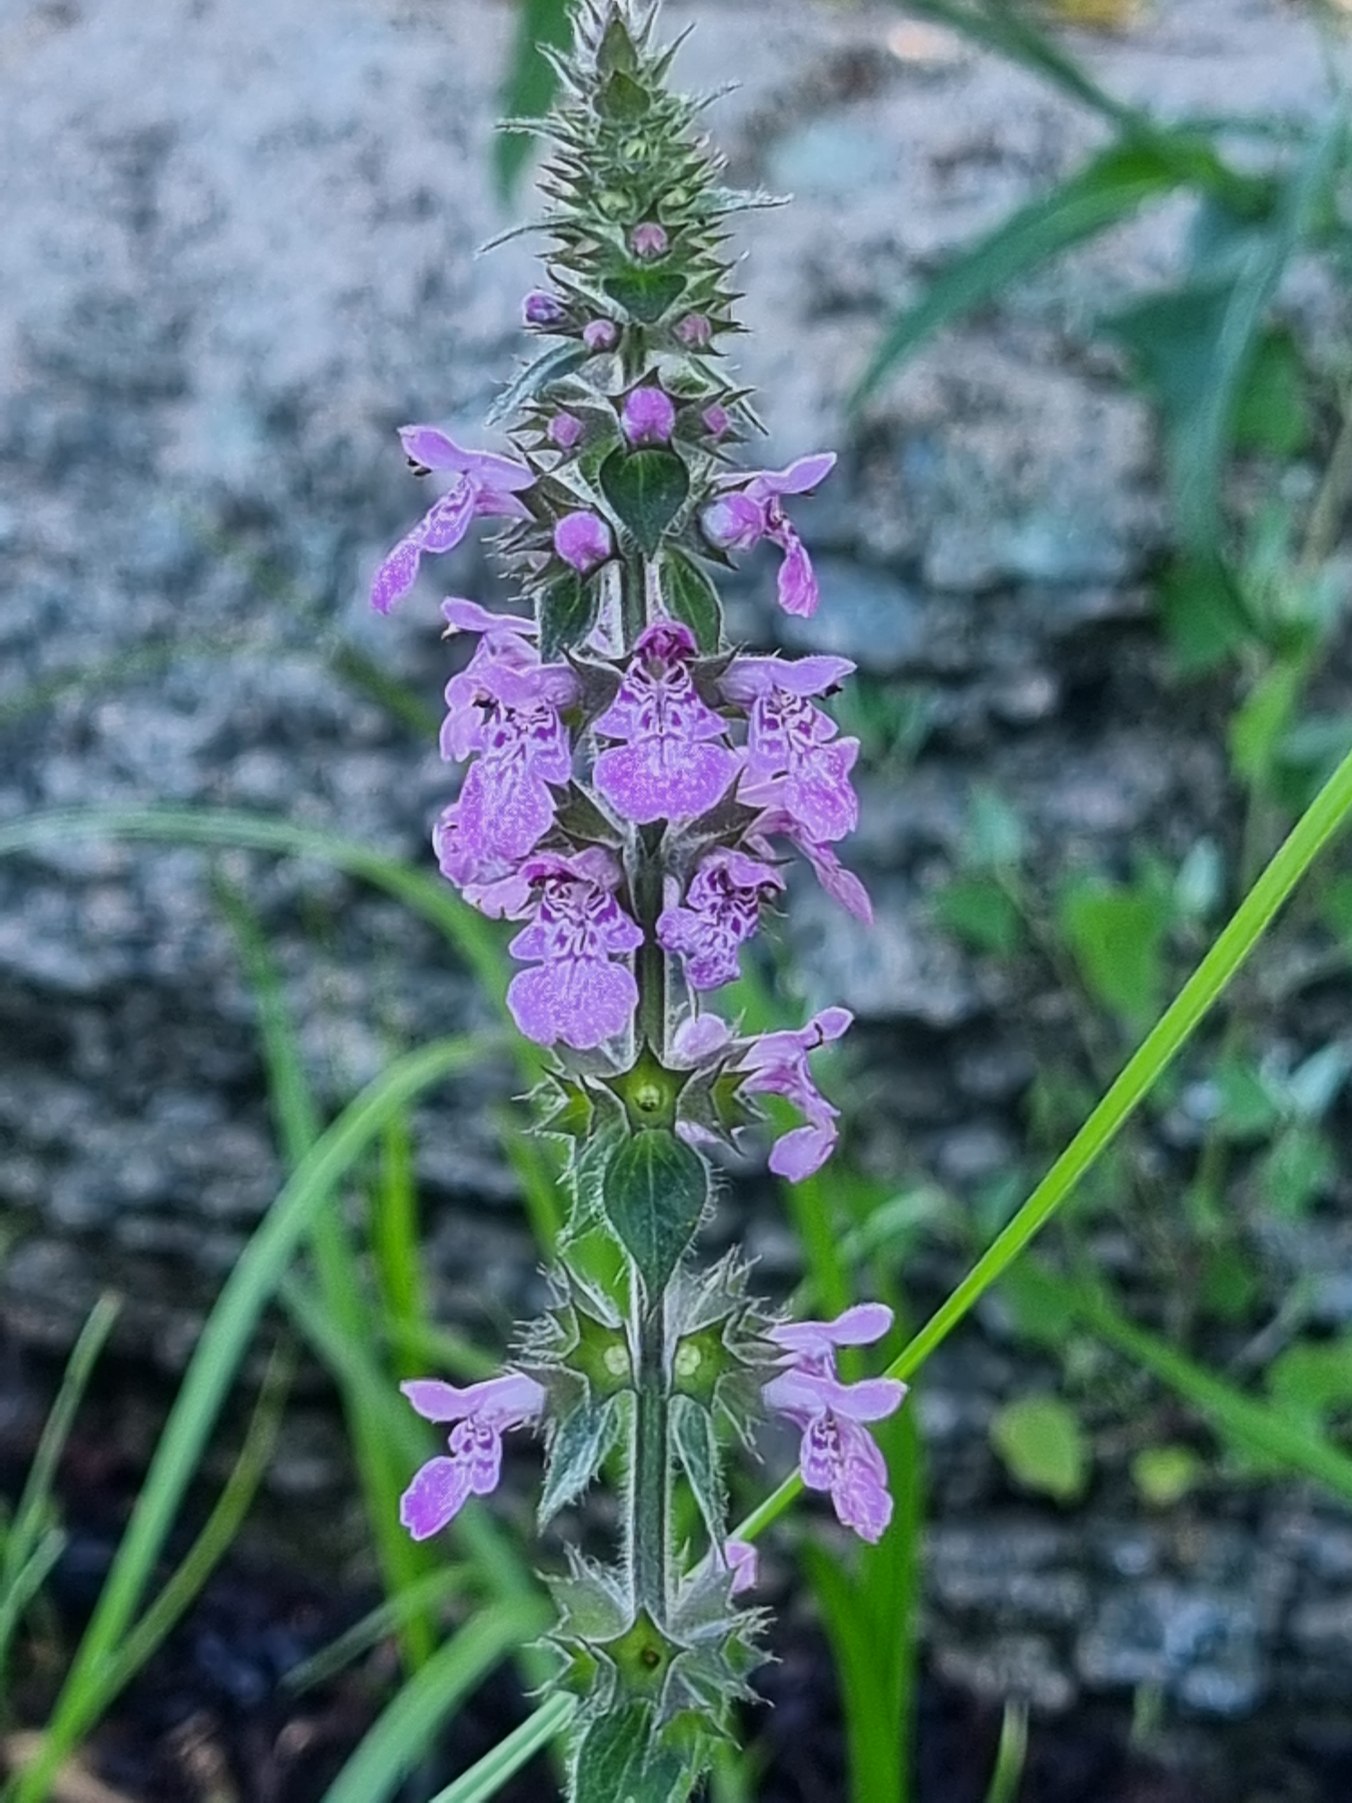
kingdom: Plantae
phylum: Tracheophyta
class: Magnoliopsida
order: Lamiales
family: Lamiaceae
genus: Stachys
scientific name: Stachys palustris
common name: Kær-galtetand
